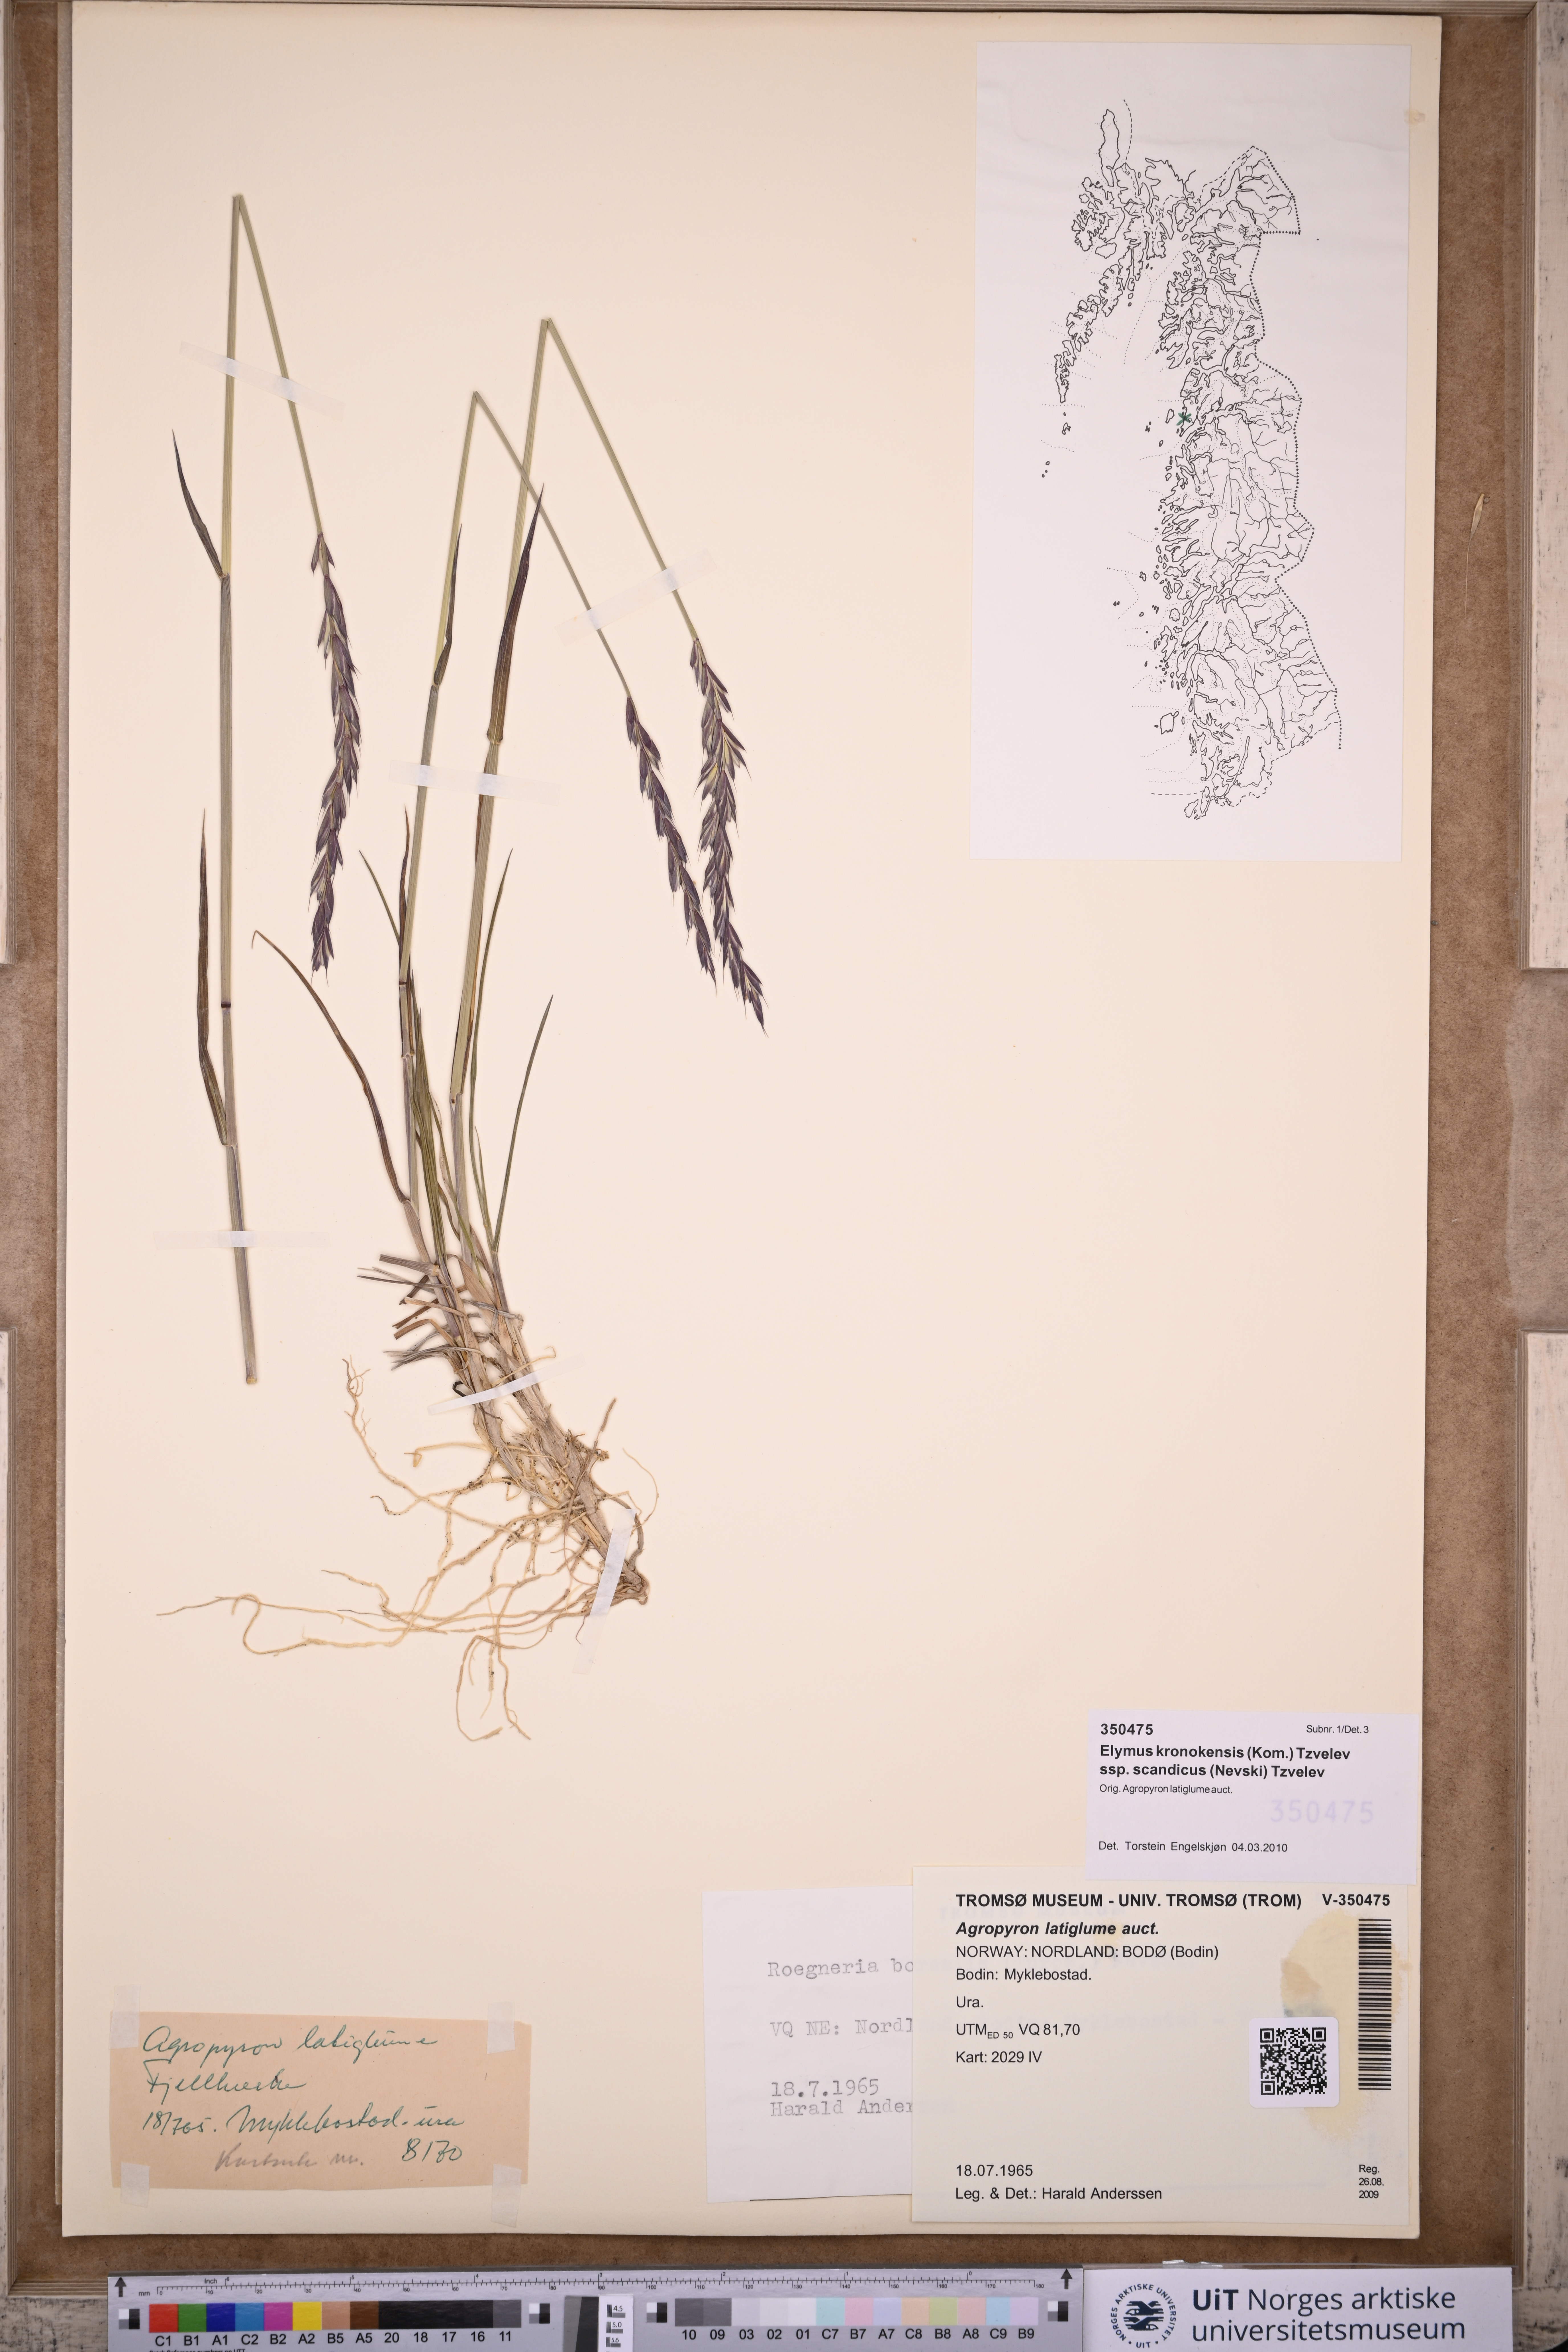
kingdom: Plantae
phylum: Tracheophyta
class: Liliopsida
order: Poales
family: Poaceae
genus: Elymus
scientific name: Elymus macrourus
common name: Northern wheatgrass
